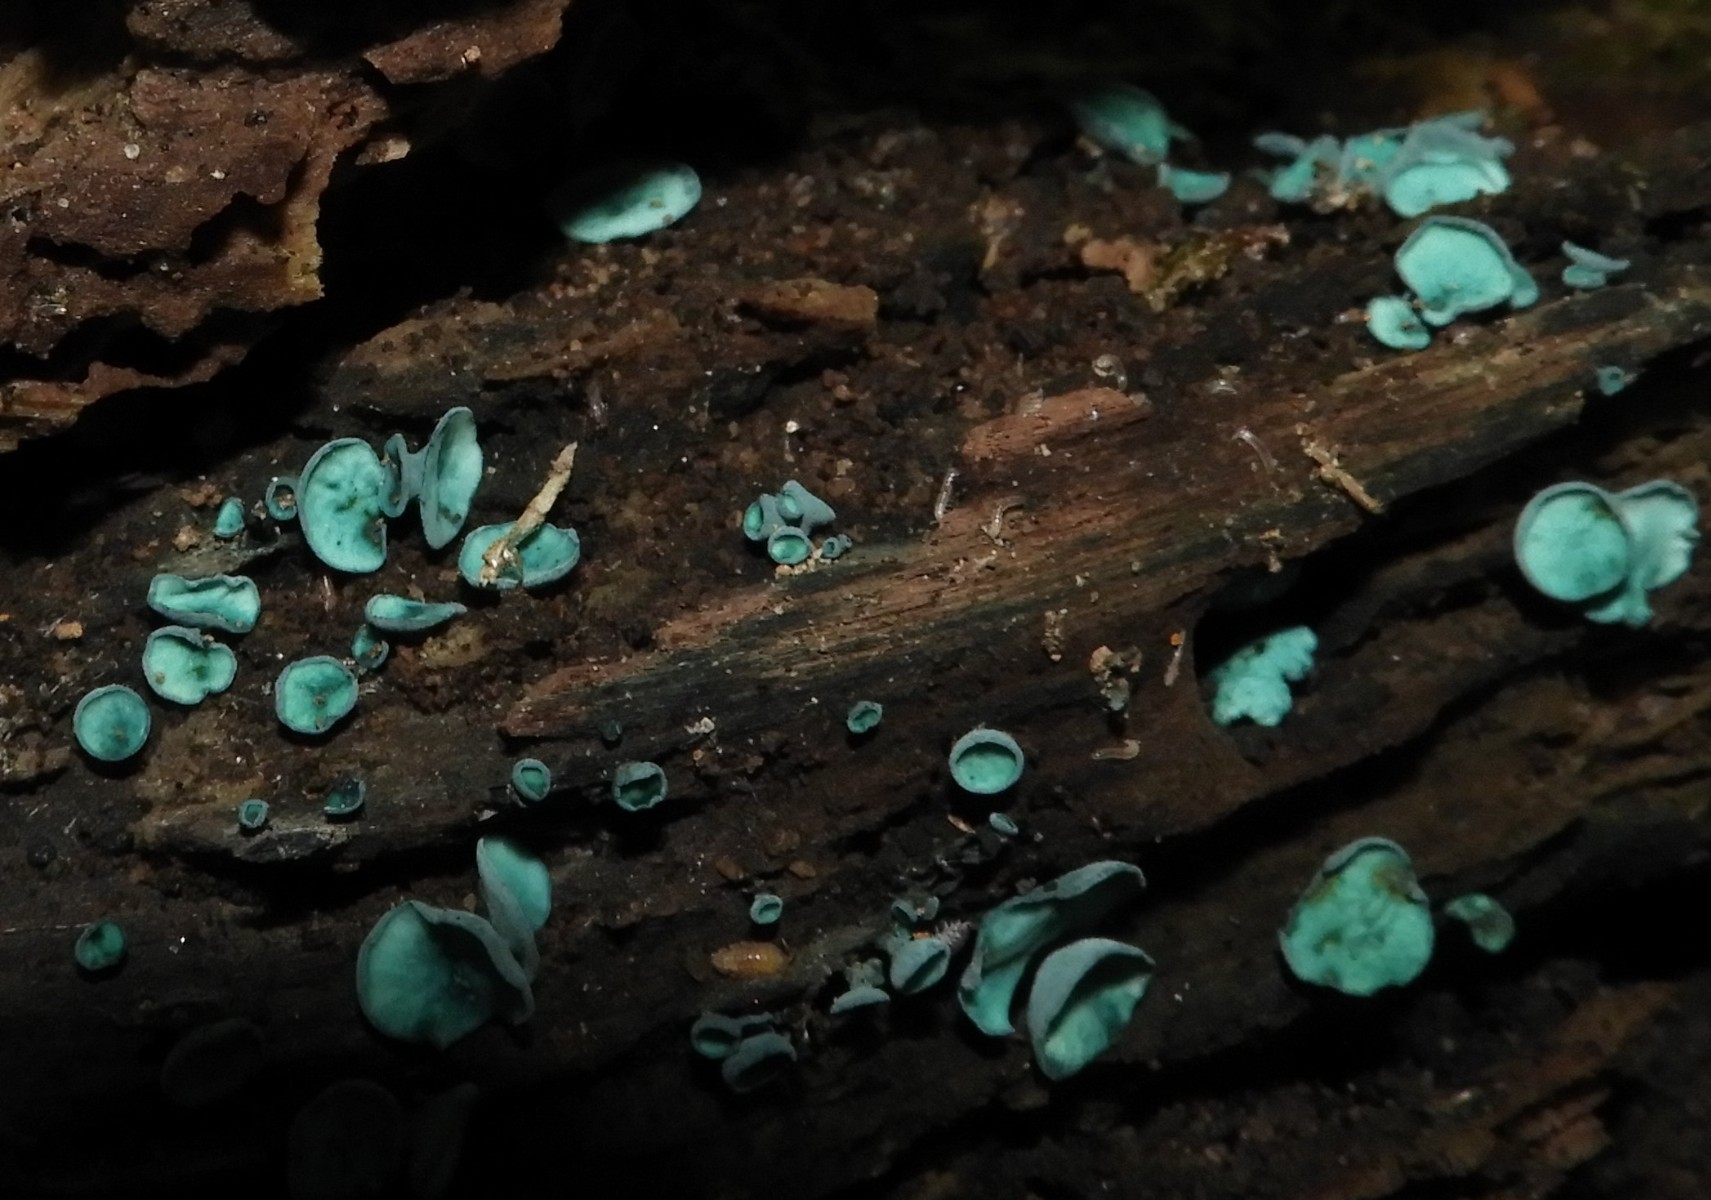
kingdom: Fungi
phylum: Ascomycota
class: Leotiomycetes
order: Helotiales
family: Chlorociboriaceae
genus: Chlorociboria
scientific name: Chlorociboria aeruginascens
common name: almindelig grønskive
